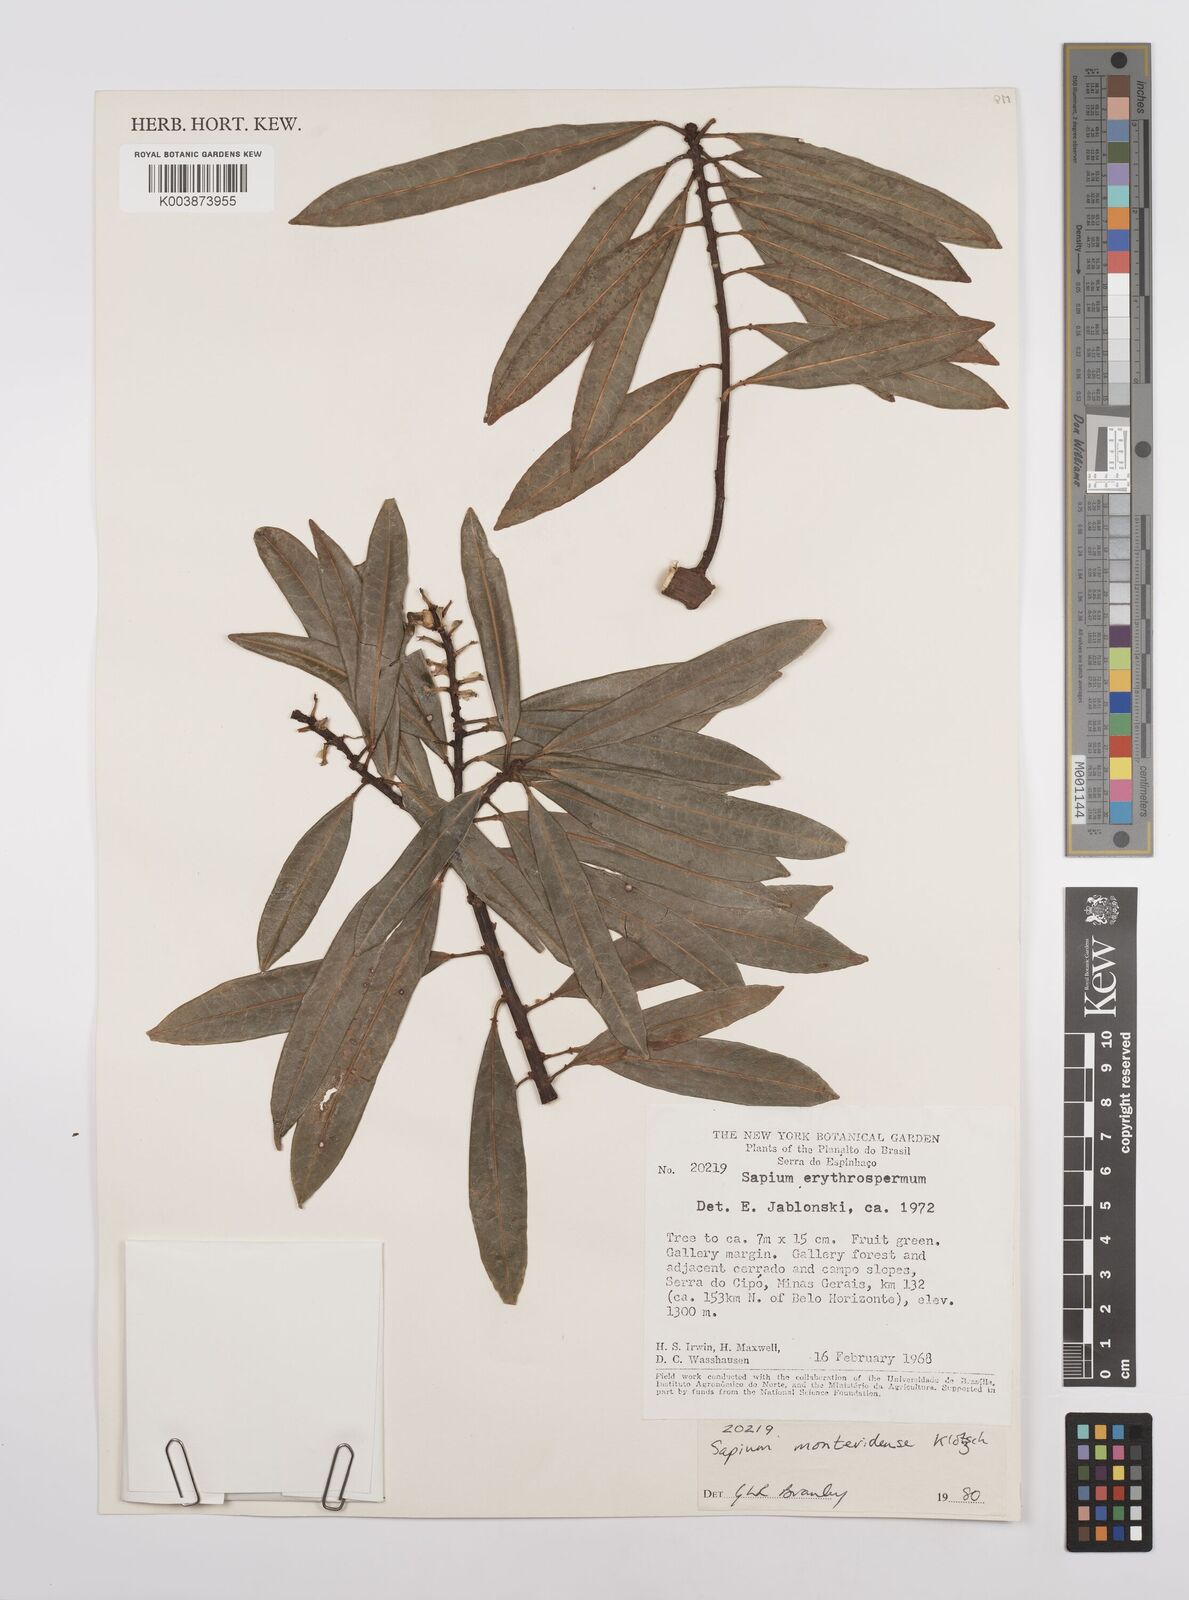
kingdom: Plantae
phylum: Tracheophyta
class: Magnoliopsida
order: Malpighiales
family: Euphorbiaceae
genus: Sapium
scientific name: Sapium glandulosum
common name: Milktree
